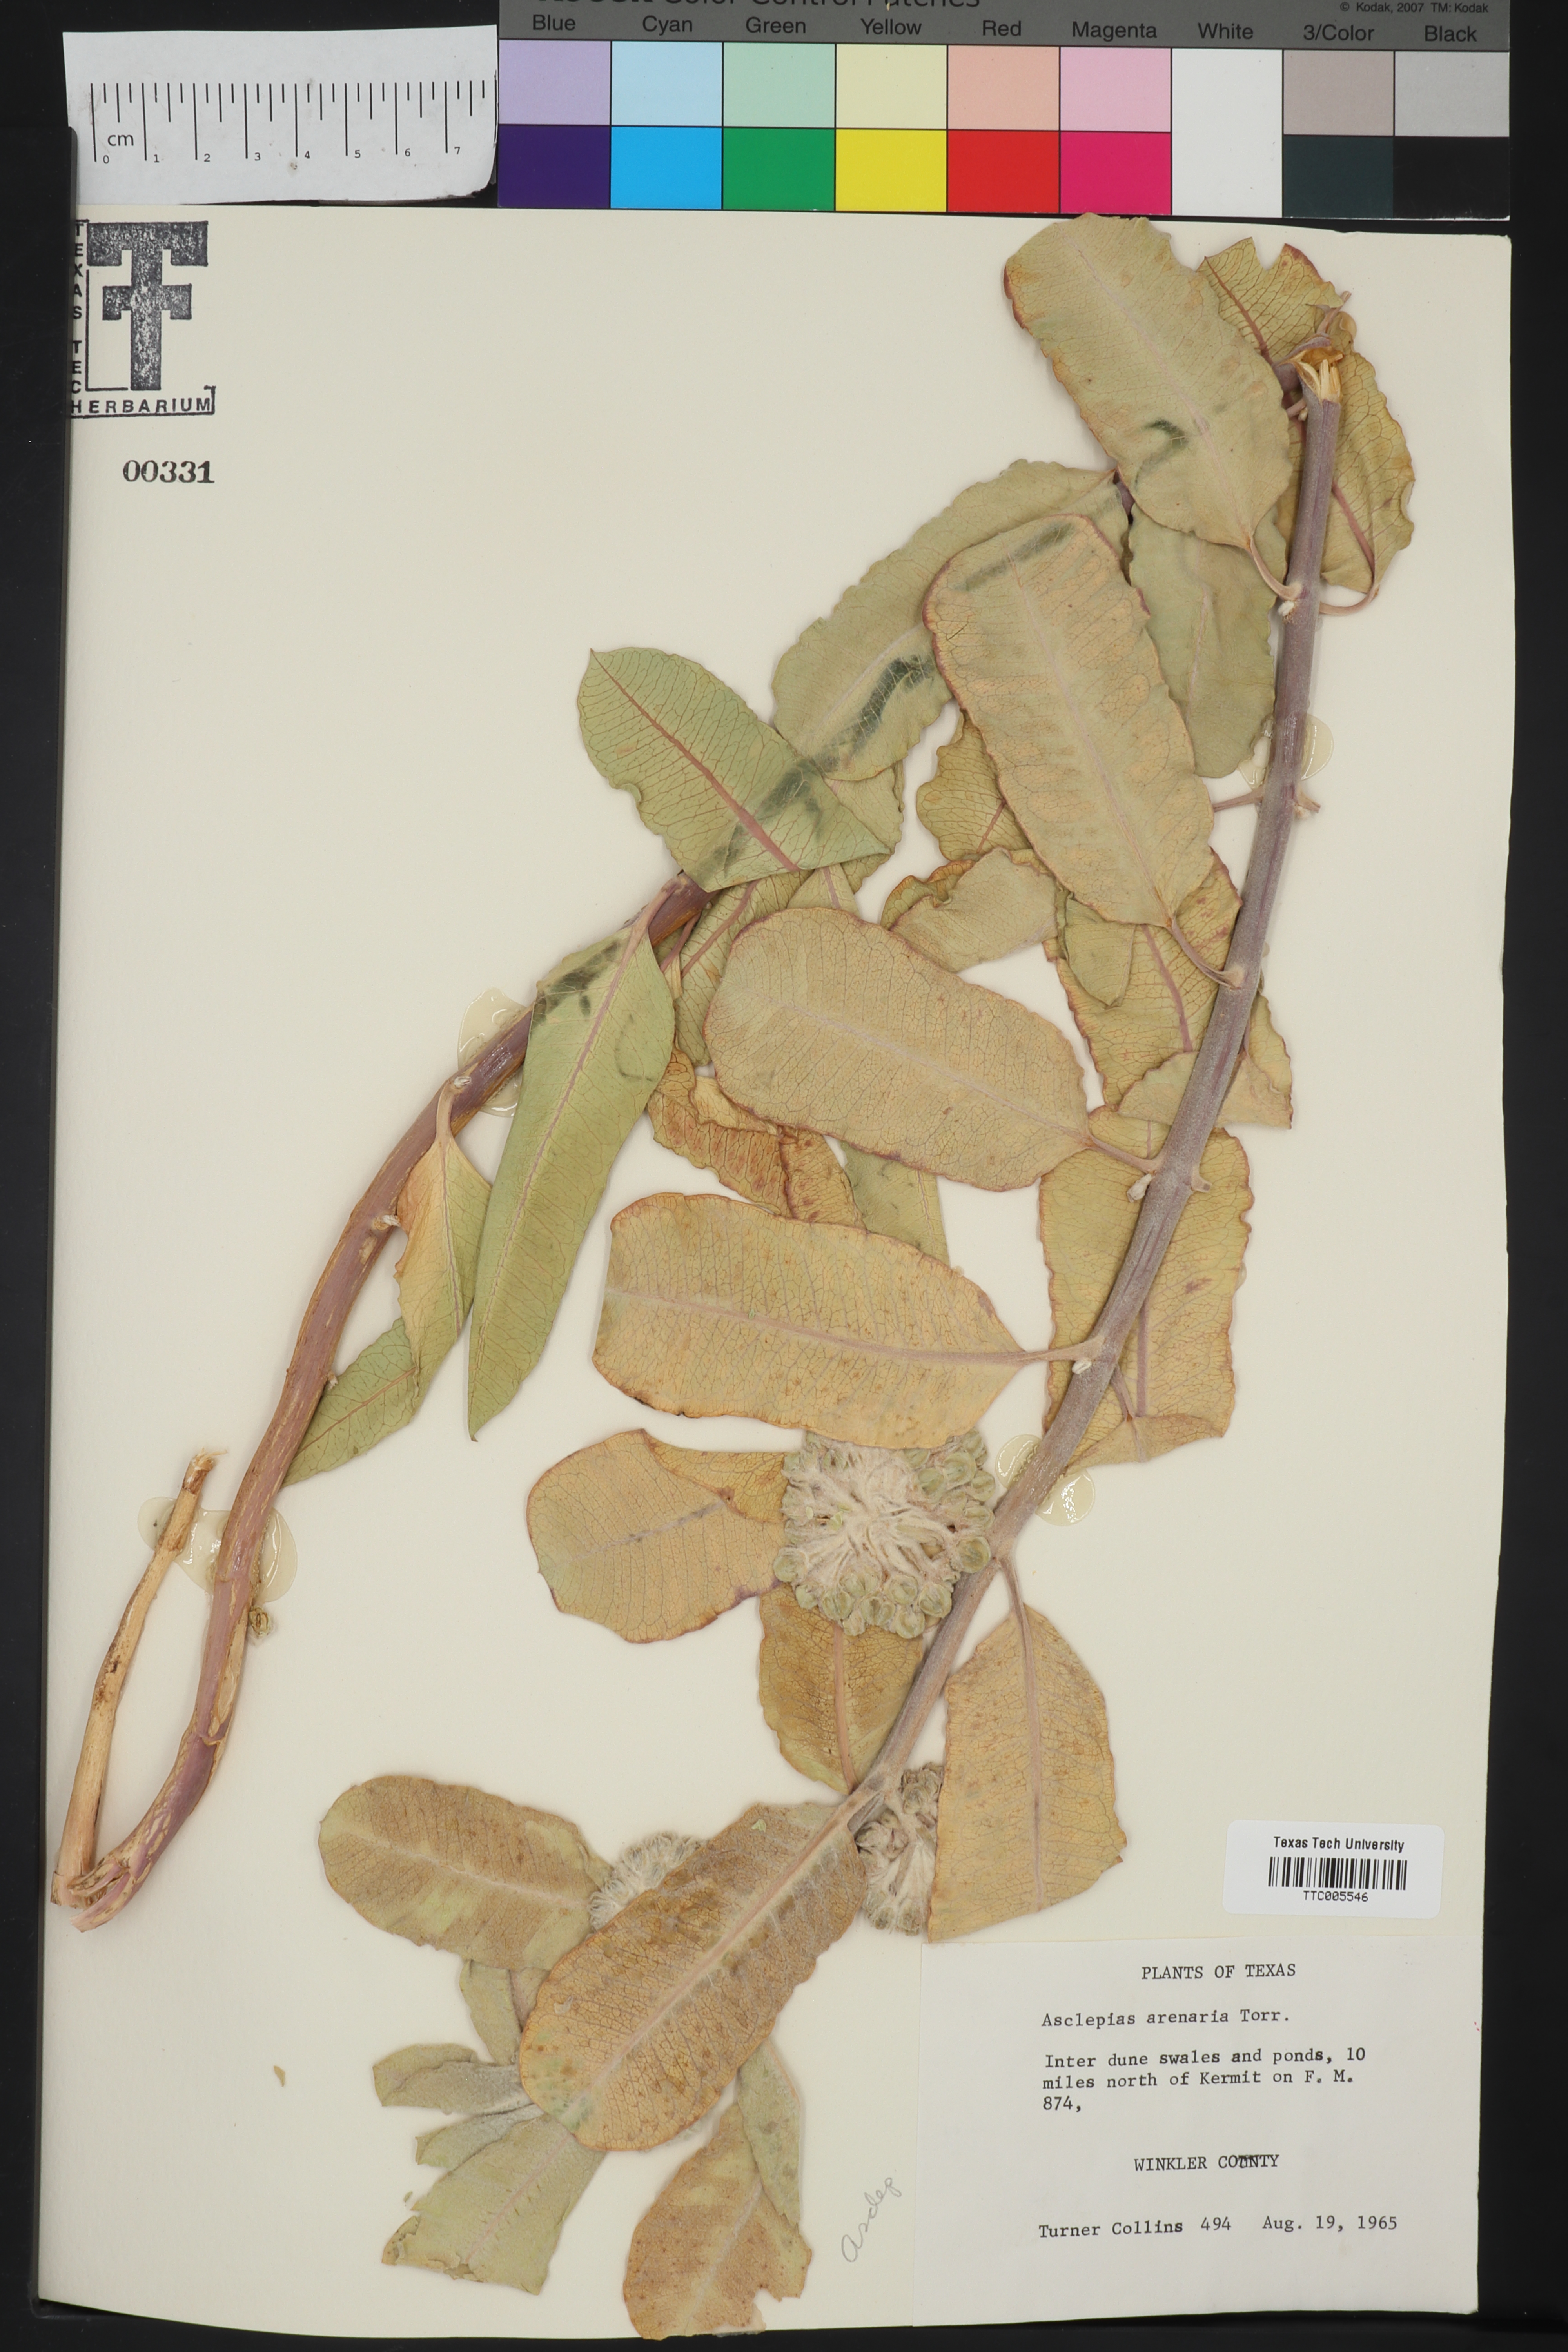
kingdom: Plantae
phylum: Tracheophyta
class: Magnoliopsida
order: Gentianales
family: Apocynaceae
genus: Asclepias
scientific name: Asclepias arenaria
